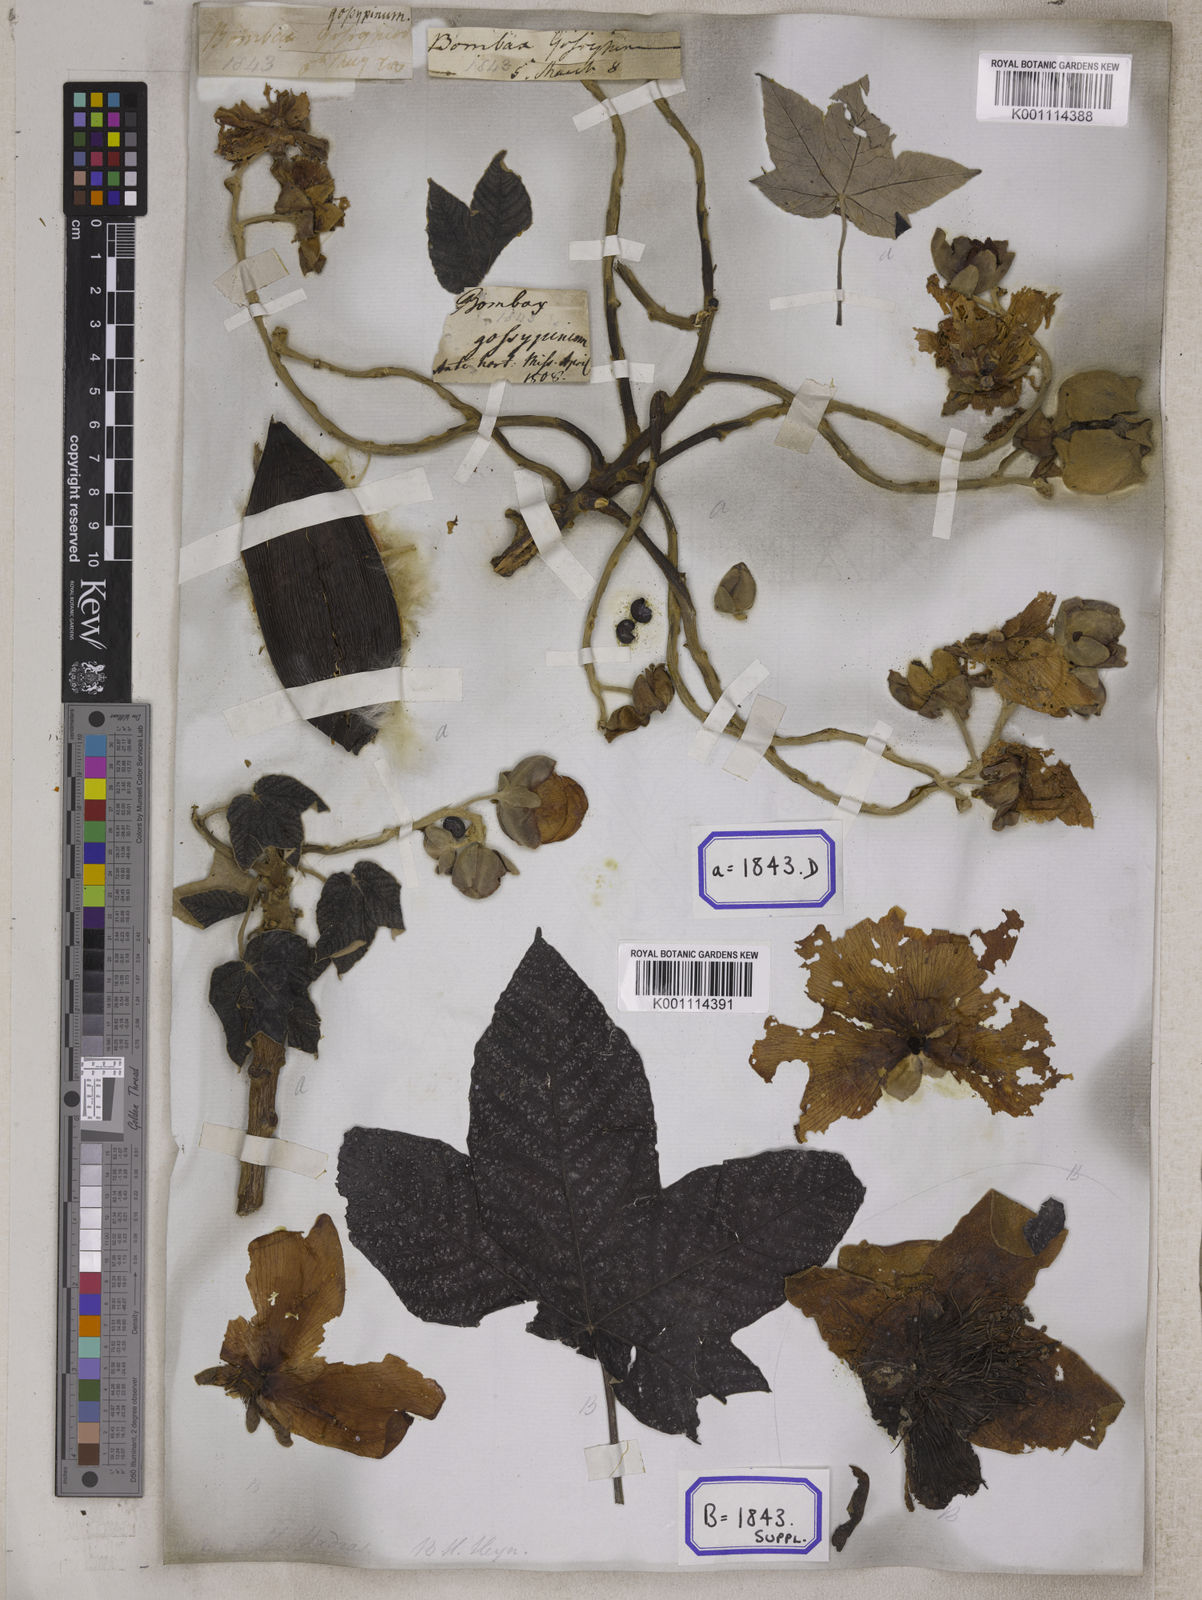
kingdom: Plantae
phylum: Tracheophyta
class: Magnoliopsida
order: Malvales
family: Cochlospermaceae
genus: Cochlospermum
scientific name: Cochlospermum religiosum
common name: Cottontree
